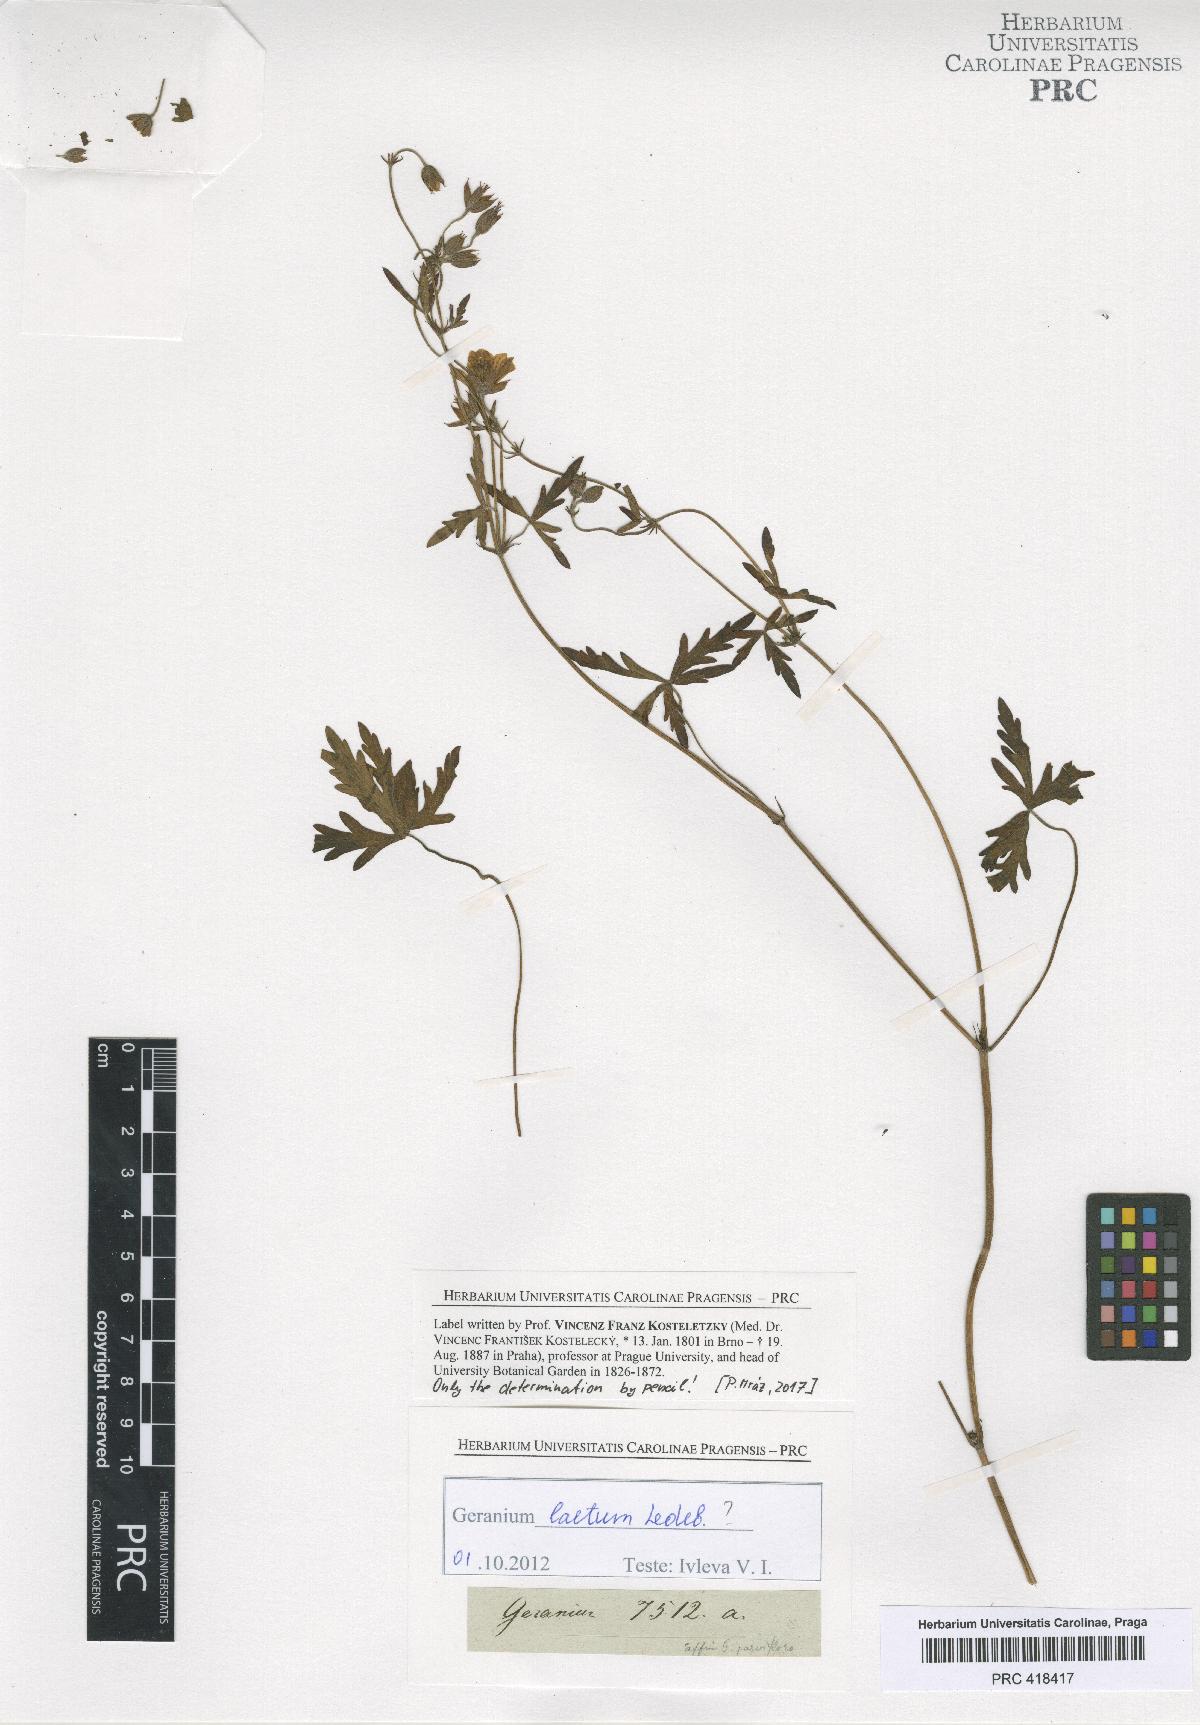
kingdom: Plantae
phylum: Tracheophyta
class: Magnoliopsida
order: Geraniales
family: Geraniaceae
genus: Geranium
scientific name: Geranium
